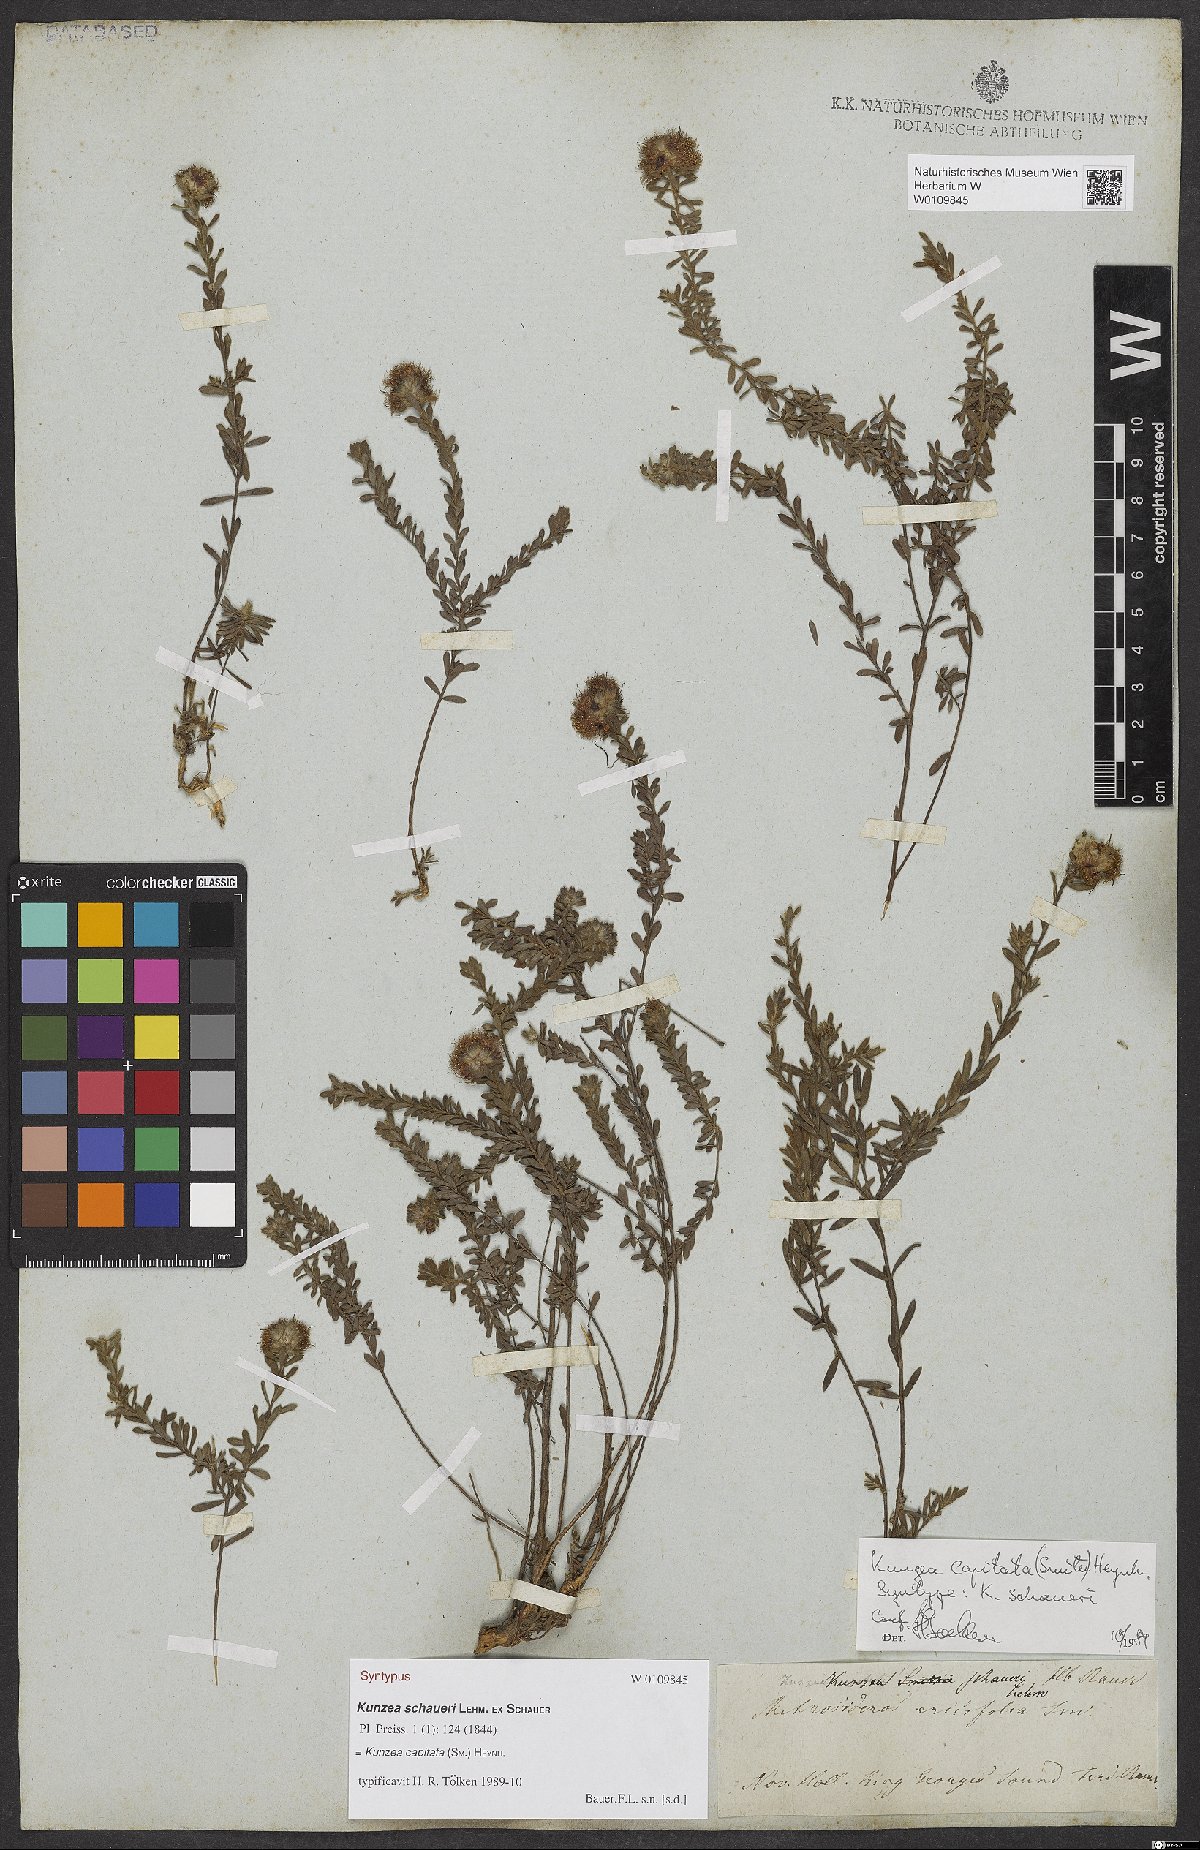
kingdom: Plantae
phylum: Tracheophyta
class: Magnoliopsida
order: Myrtales
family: Myrtaceae
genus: Kunzea
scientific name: Kunzea capitata
